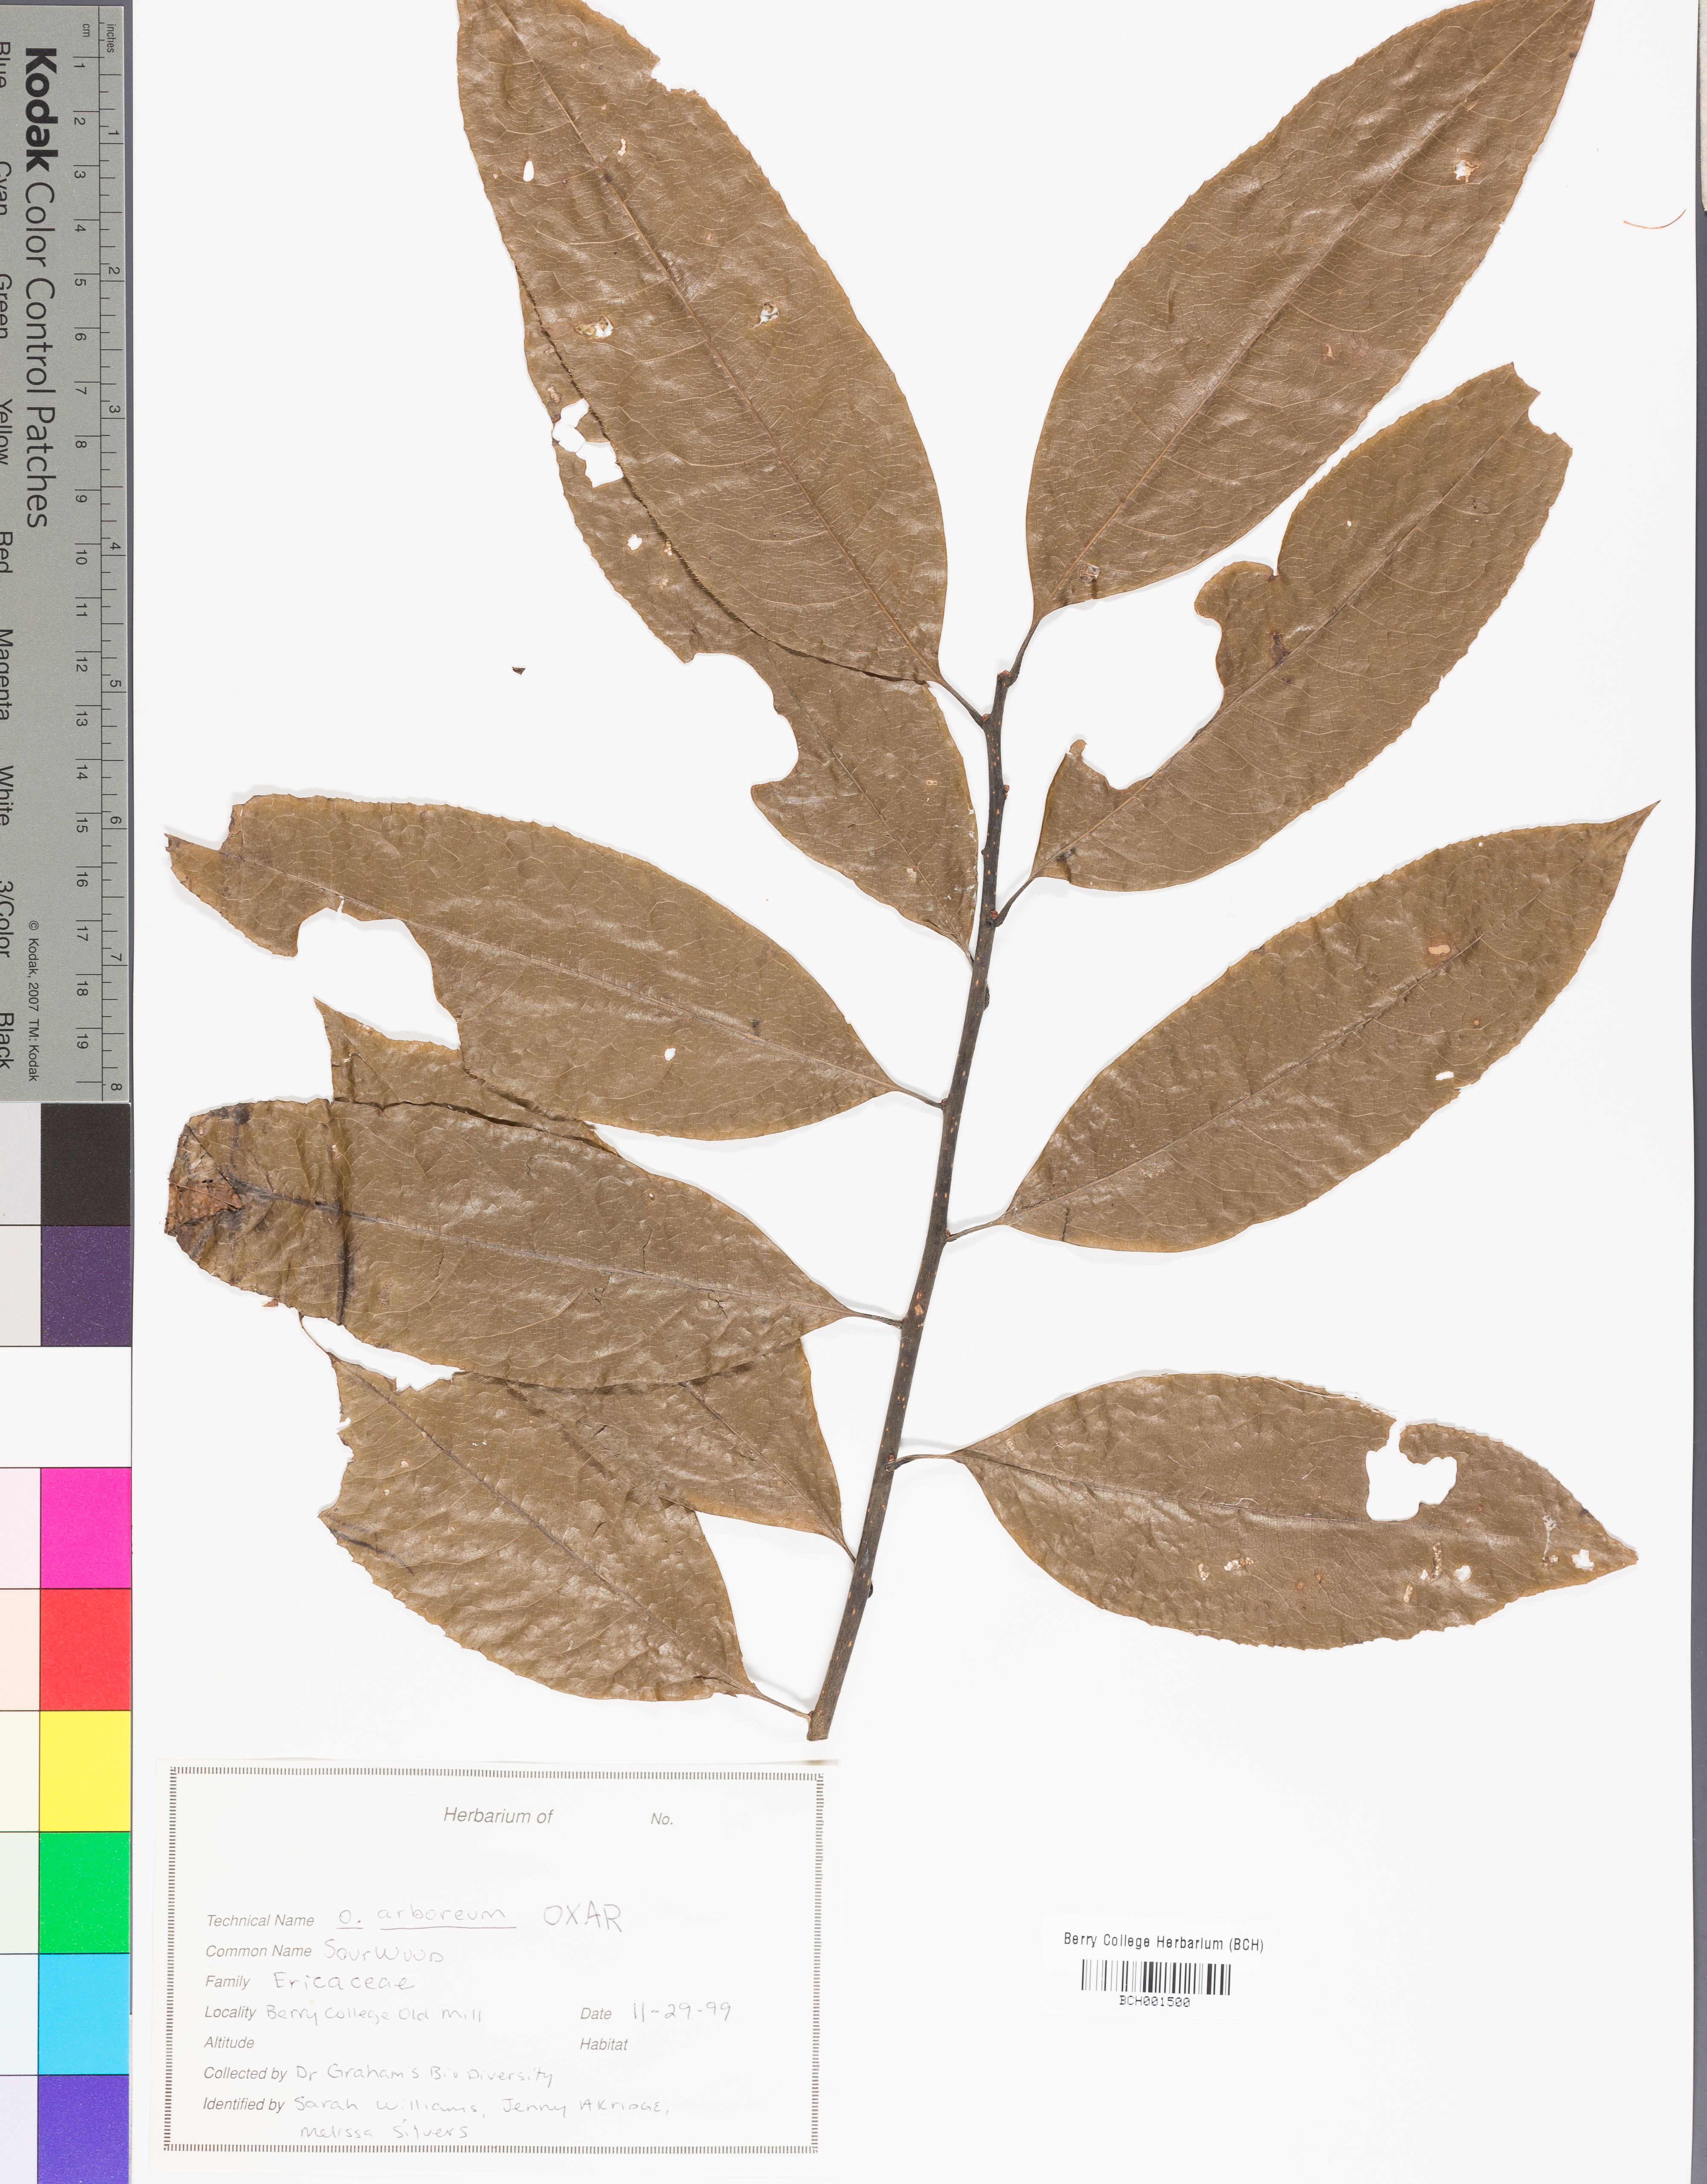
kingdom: Plantae
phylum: Tracheophyta
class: Magnoliopsida
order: Ericales
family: Ericaceae
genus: Oxydendrum
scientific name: Oxydendrum arboreum
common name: Sourwood
